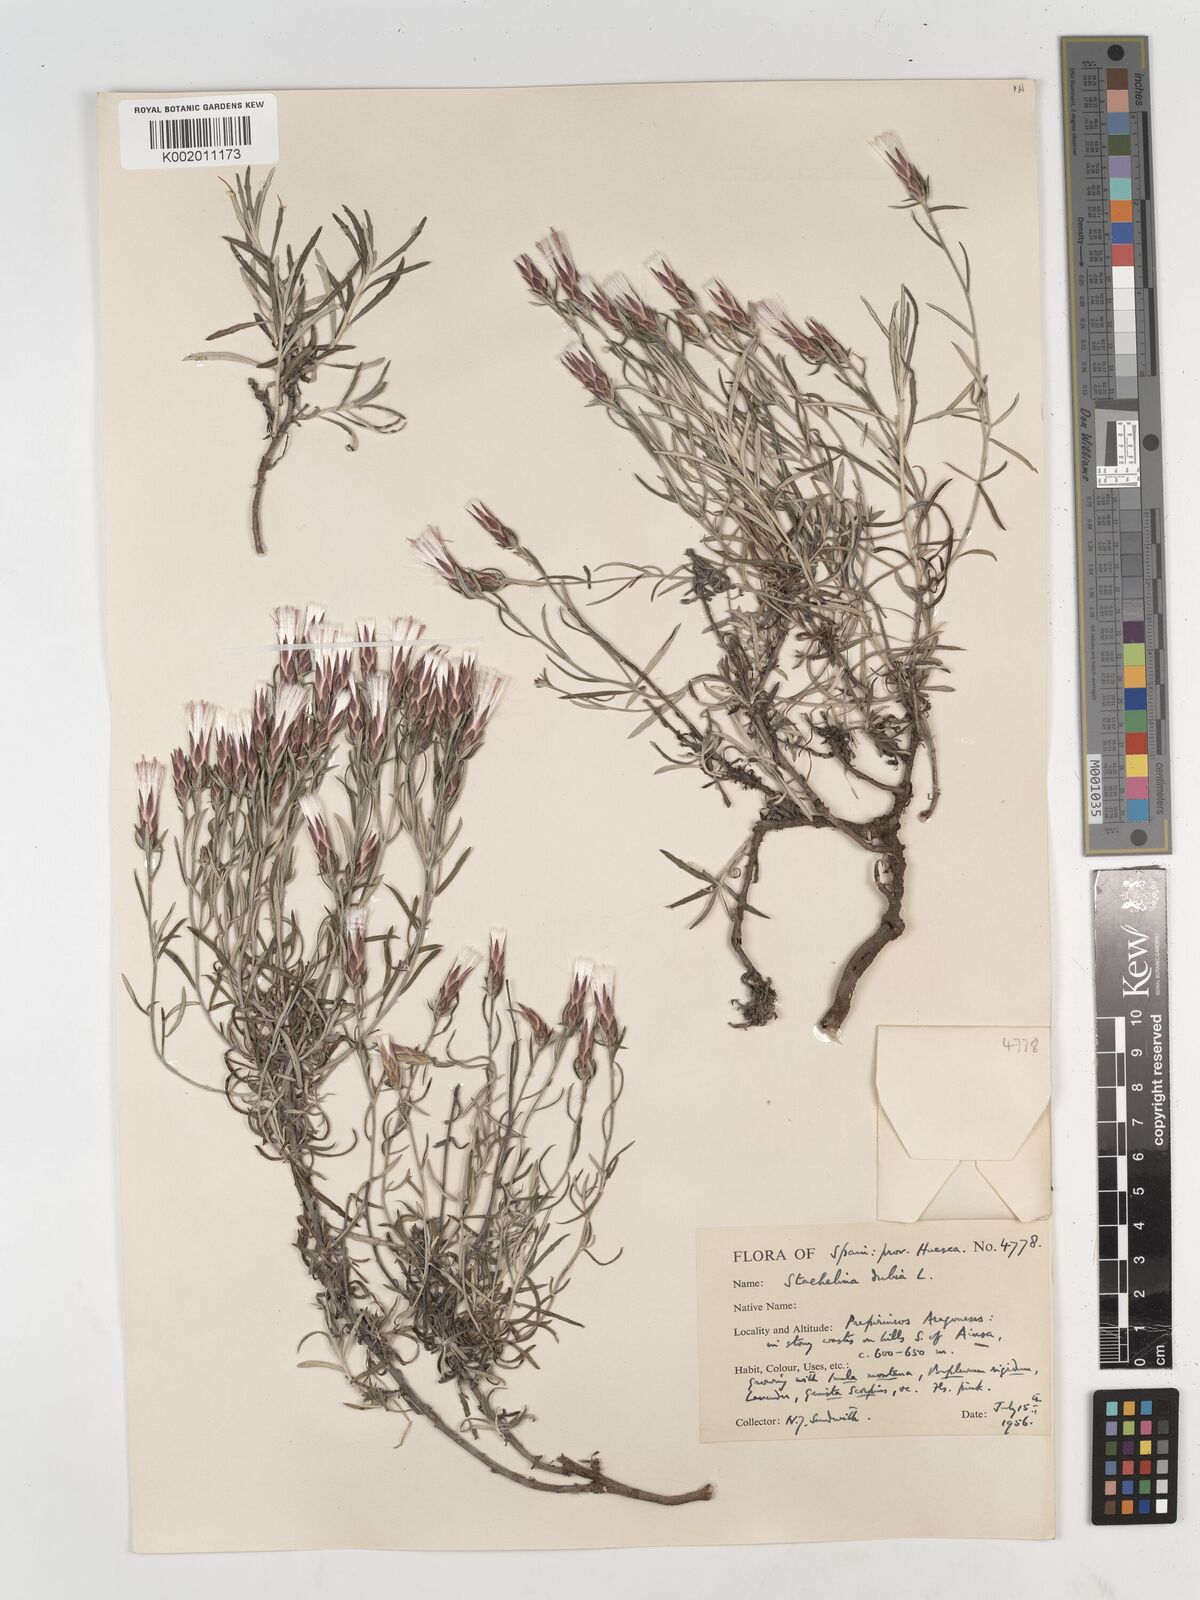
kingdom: Plantae
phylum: Tracheophyta
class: Magnoliopsida
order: Asterales
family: Asteraceae
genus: Staehelina
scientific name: Staehelina dubia
